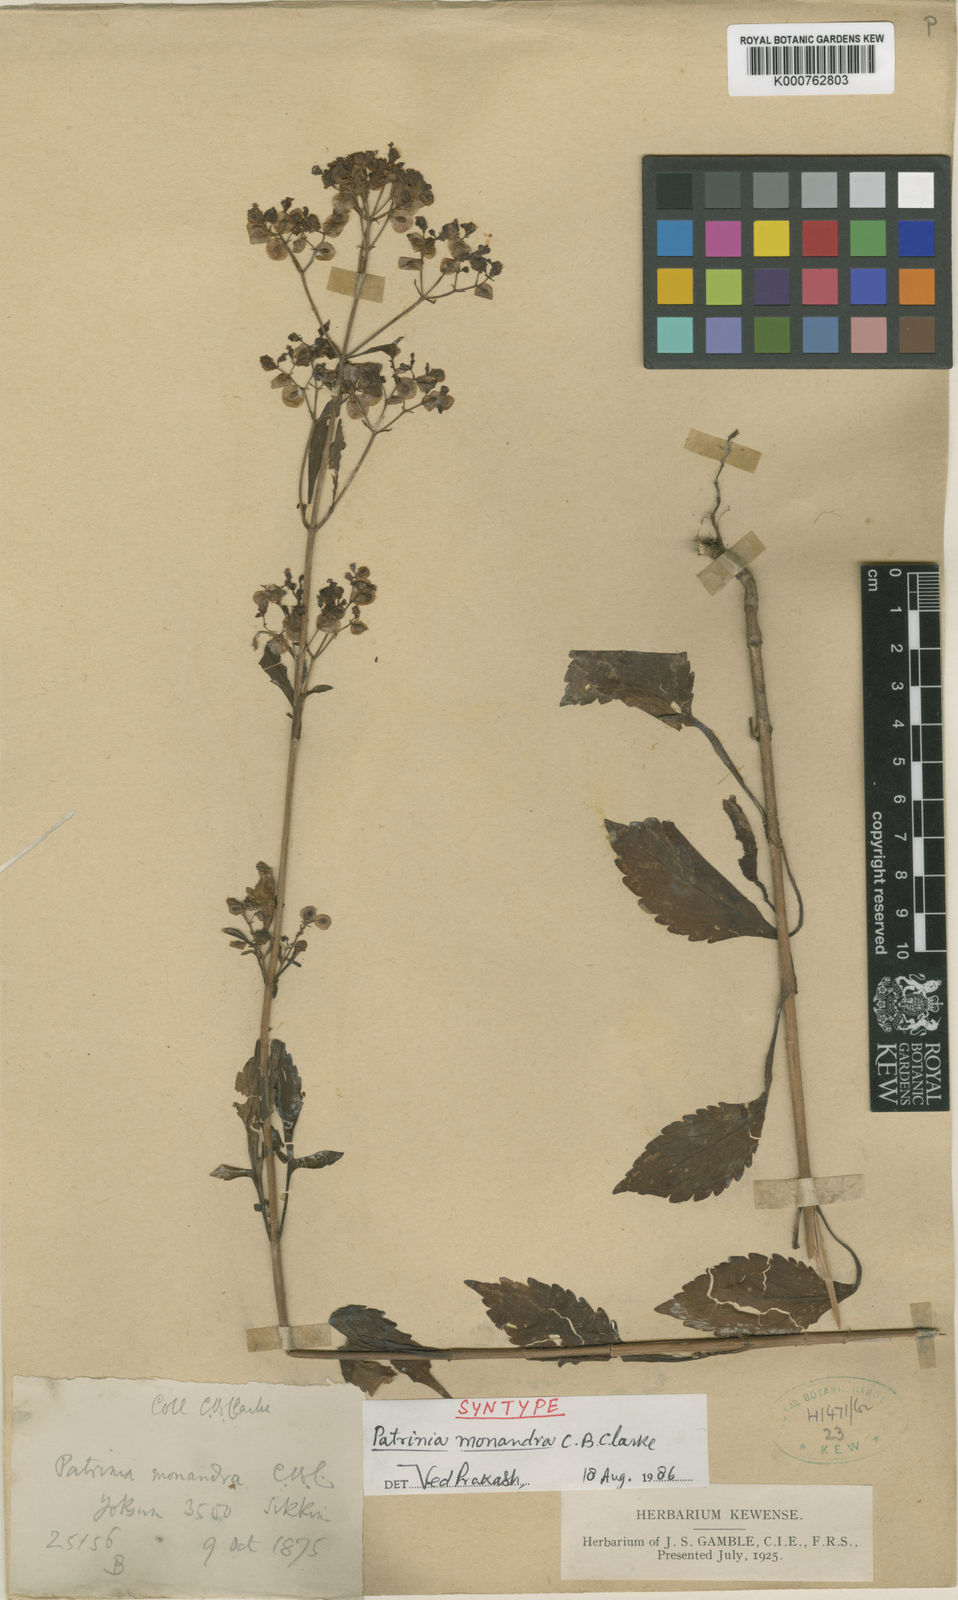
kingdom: Plantae
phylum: Tracheophyta
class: Magnoliopsida
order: Dipsacales
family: Caprifoliaceae
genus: Patrinia
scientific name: Patrinia monandra
